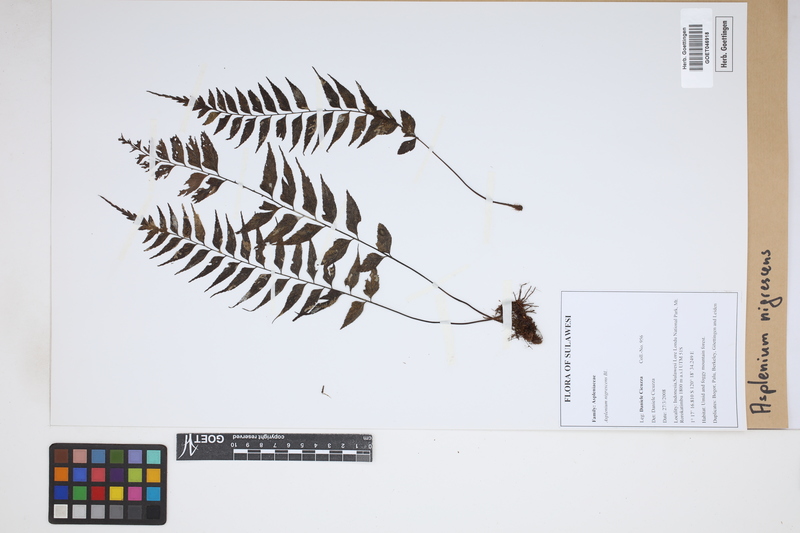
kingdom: Plantae
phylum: Tracheophyta
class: Polypodiopsida
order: Polypodiales
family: Aspleniaceae
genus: Asplenium
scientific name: Asplenium nigrescens
